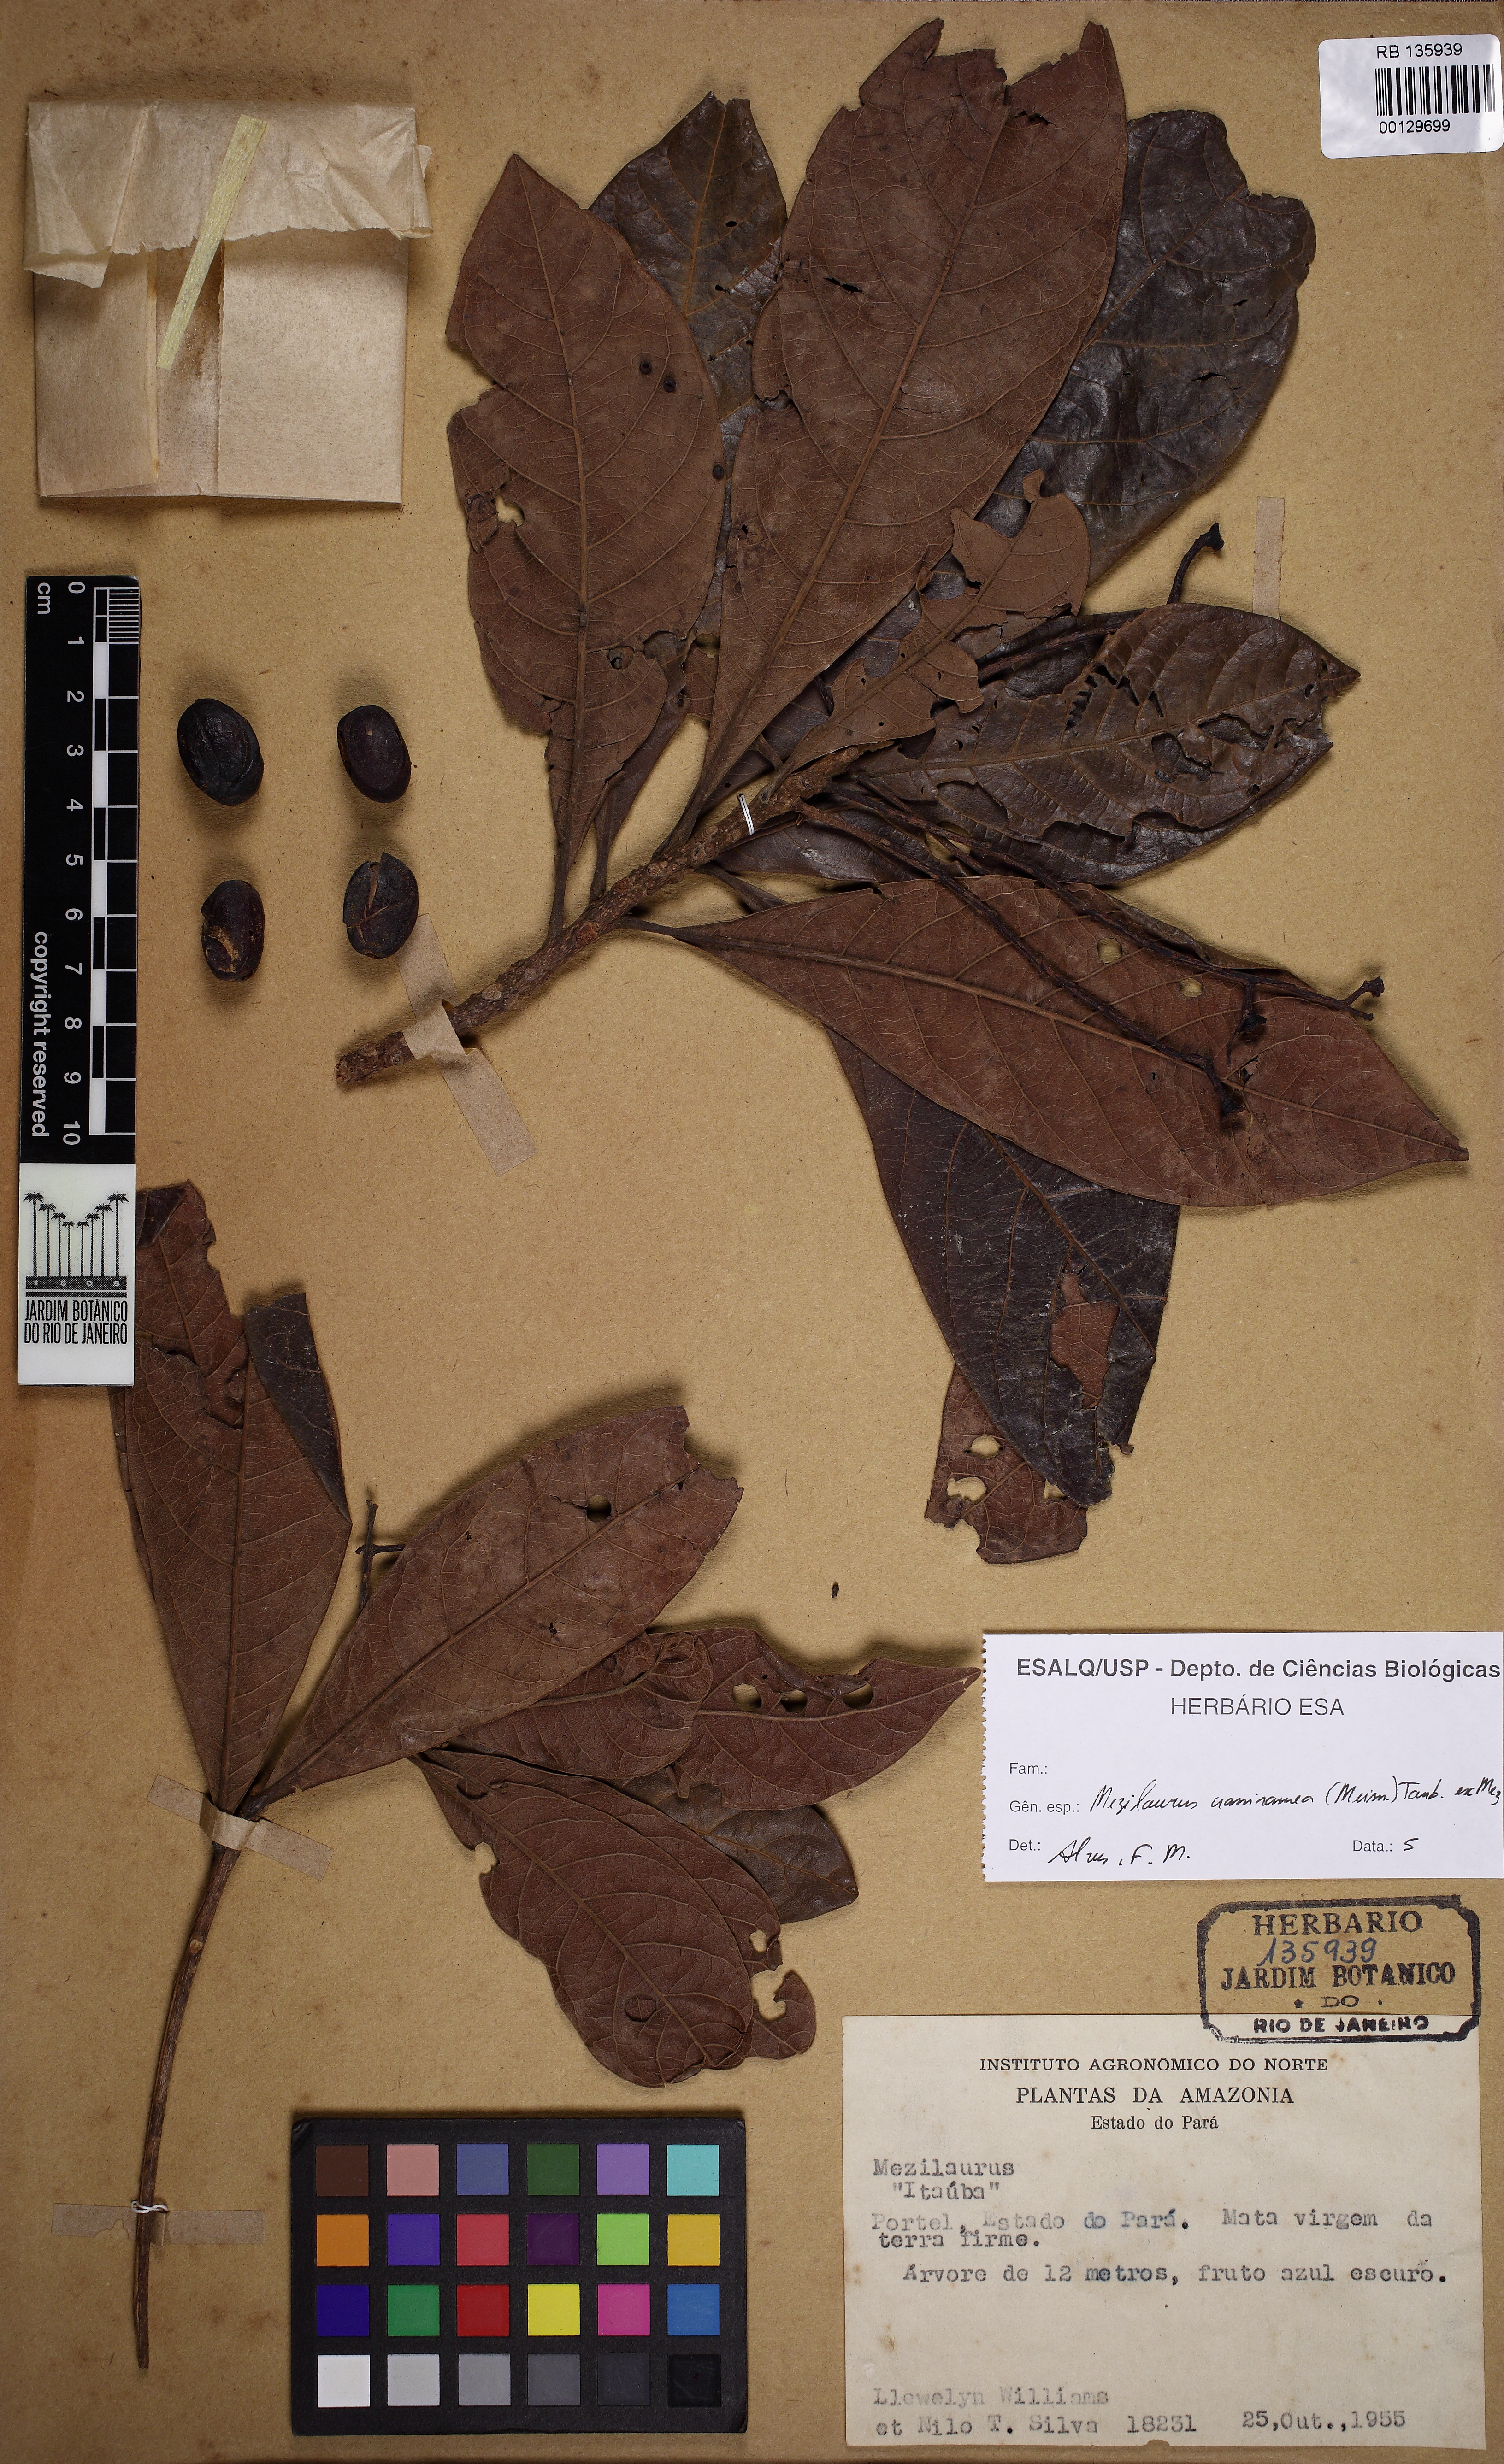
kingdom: Plantae
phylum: Tracheophyta
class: Magnoliopsida
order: Laurales
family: Lauraceae
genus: Mezilaurus
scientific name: Mezilaurus crassiramea
